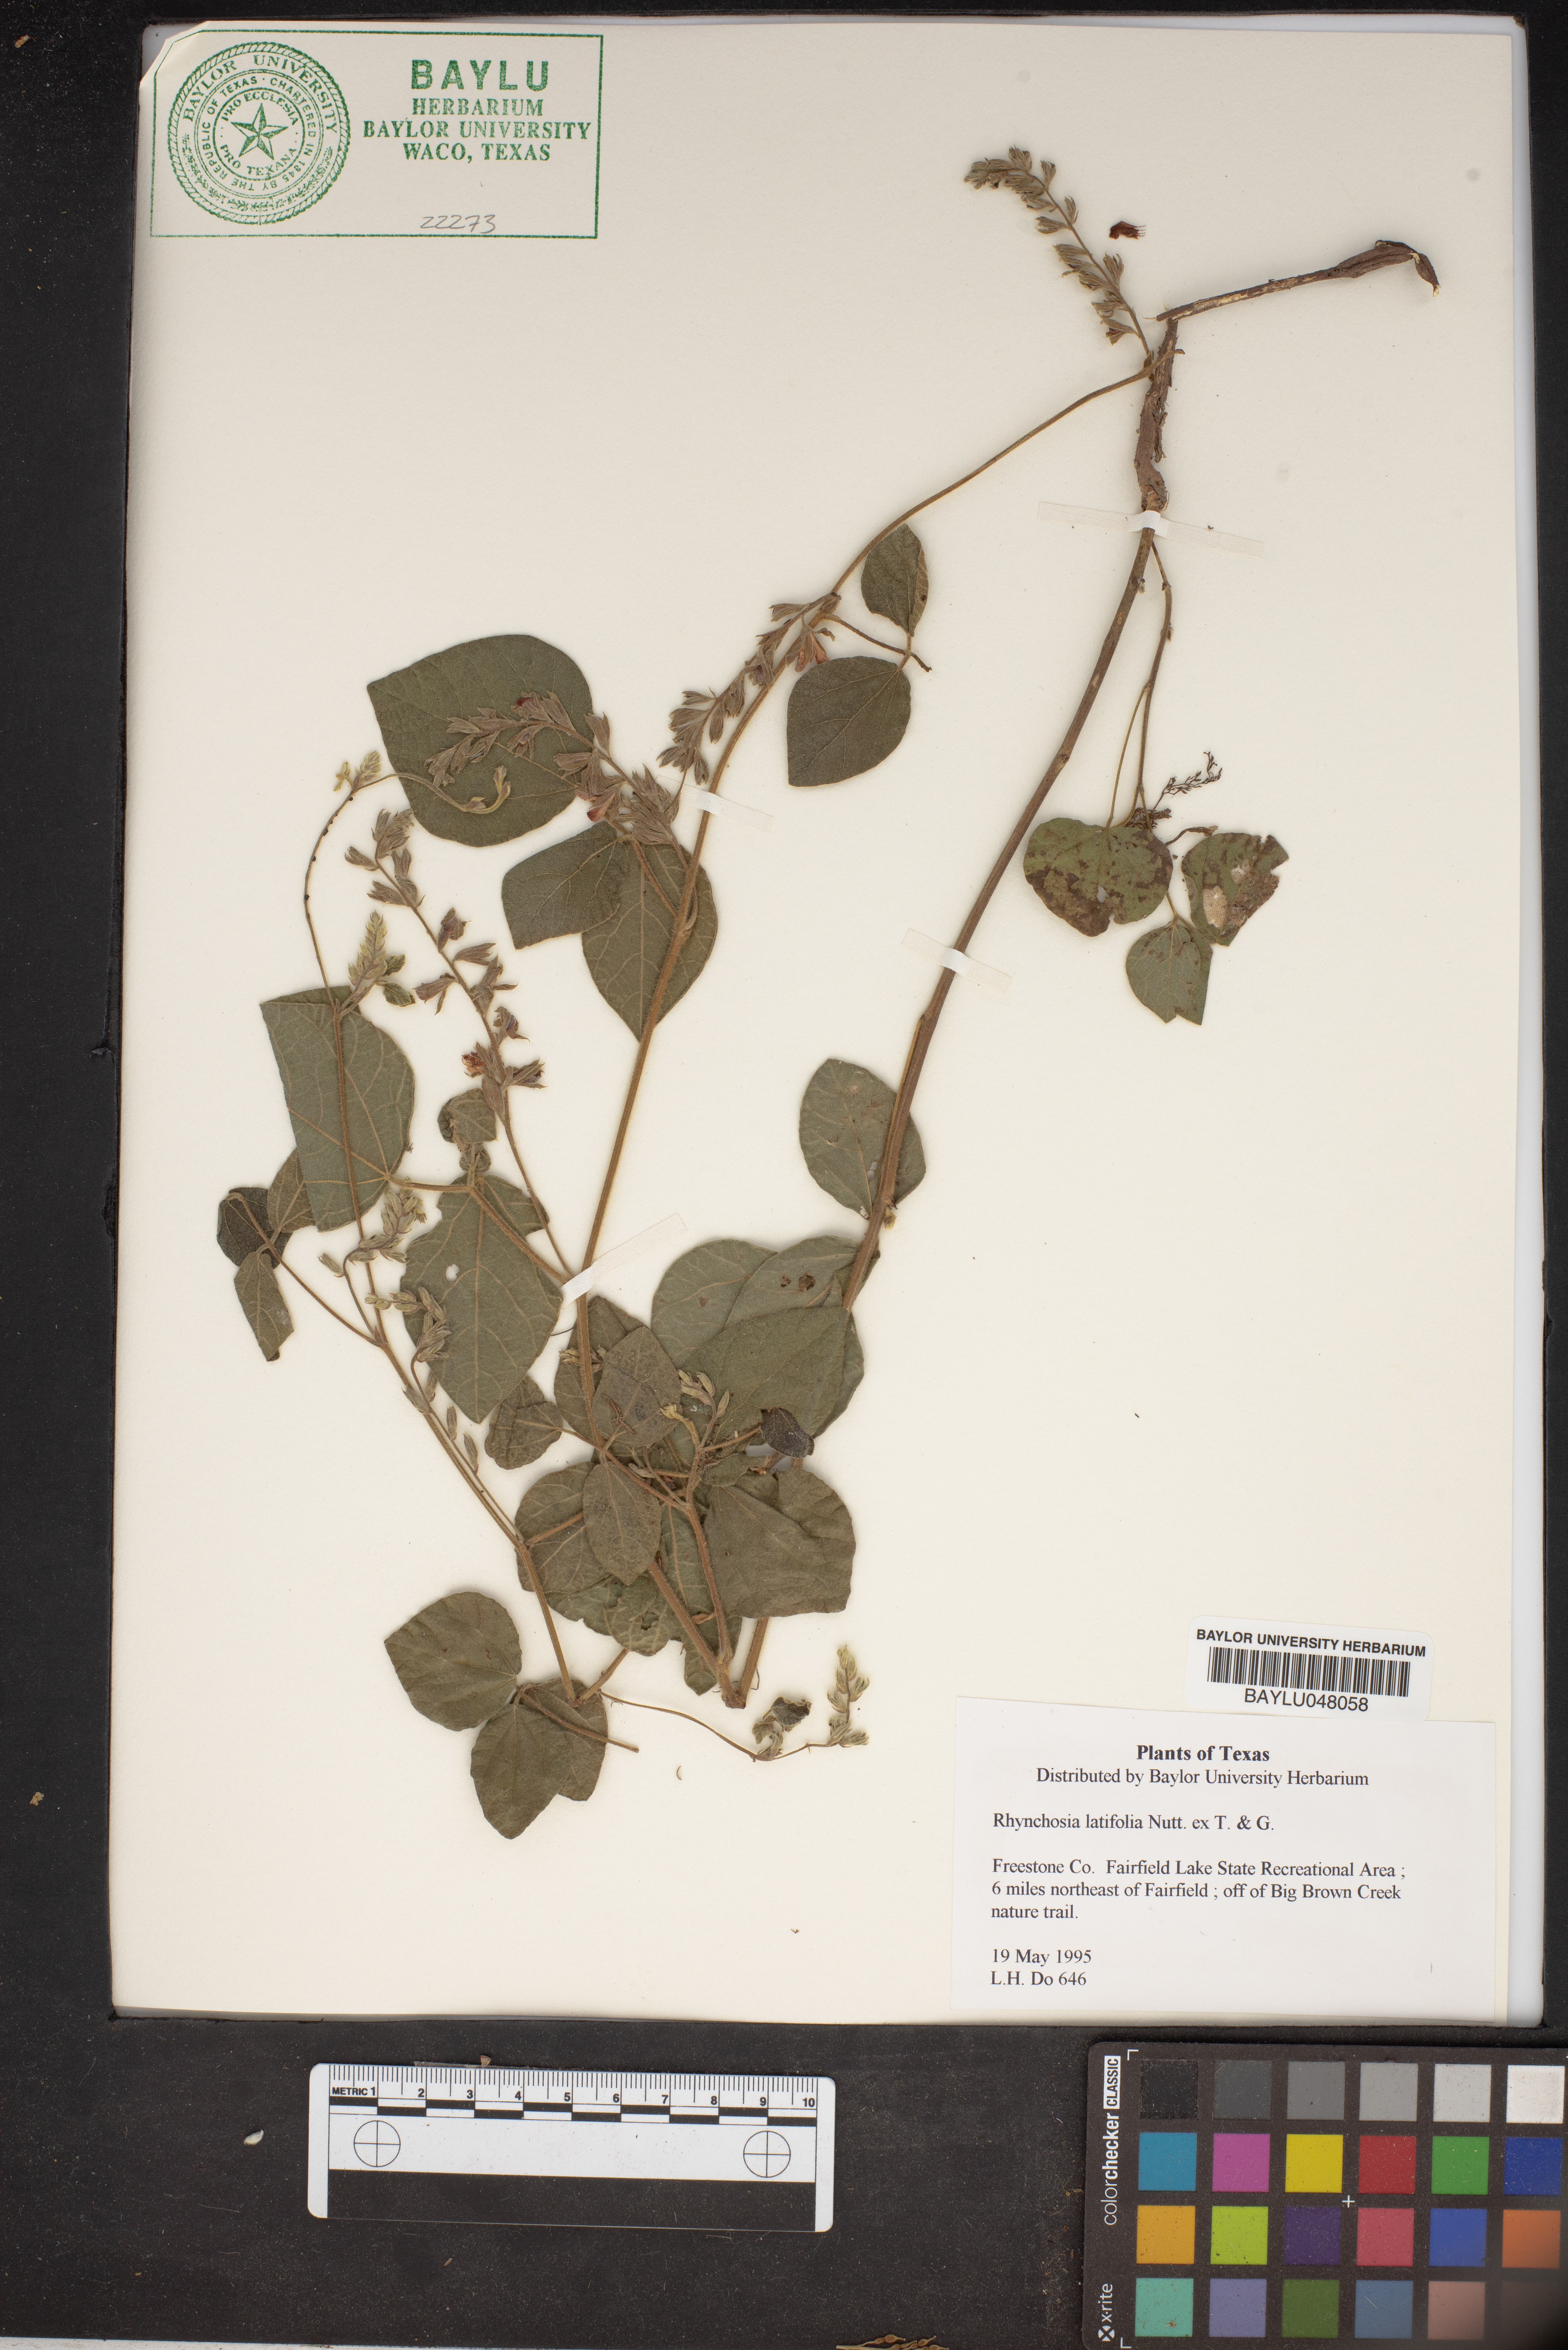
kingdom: Plantae
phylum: Tracheophyta
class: Magnoliopsida
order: Fabales
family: Fabaceae
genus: Rhynchosia
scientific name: Rhynchosia latifolia
